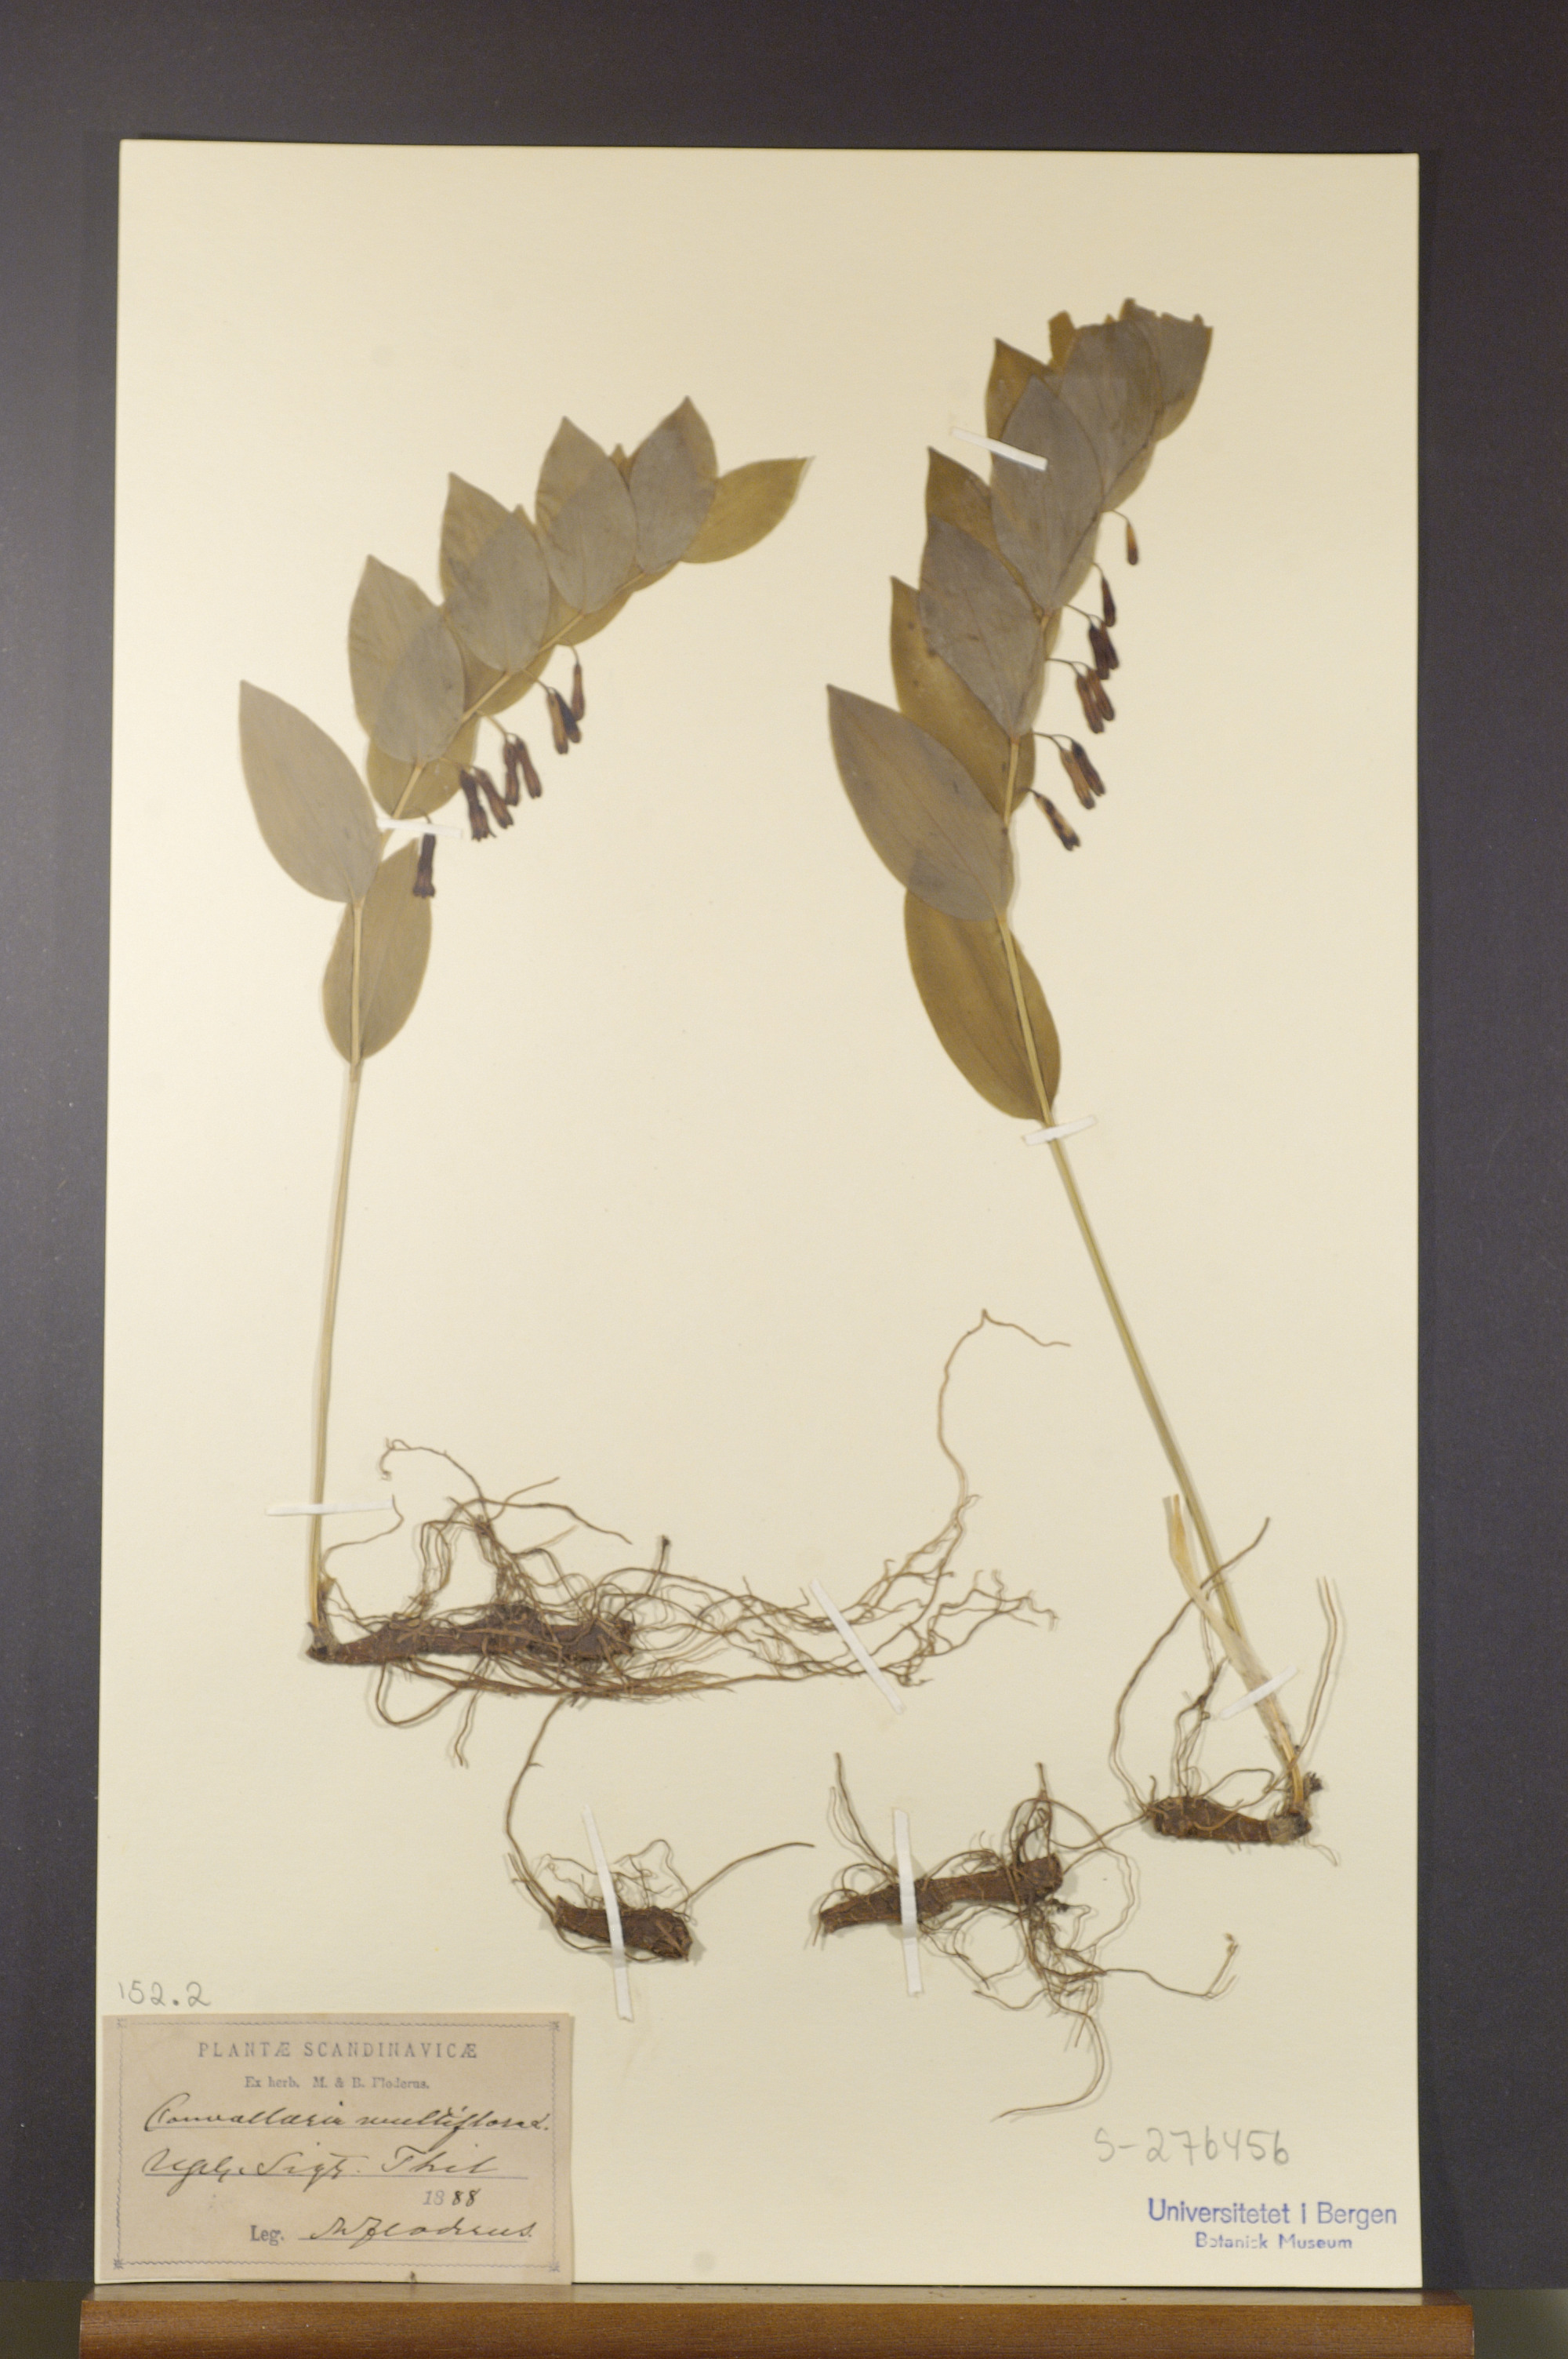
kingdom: Plantae
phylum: Tracheophyta
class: Liliopsida
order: Asparagales
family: Asparagaceae
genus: Polygonatum
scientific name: Polygonatum multiflorum
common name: Solomon's-seal
